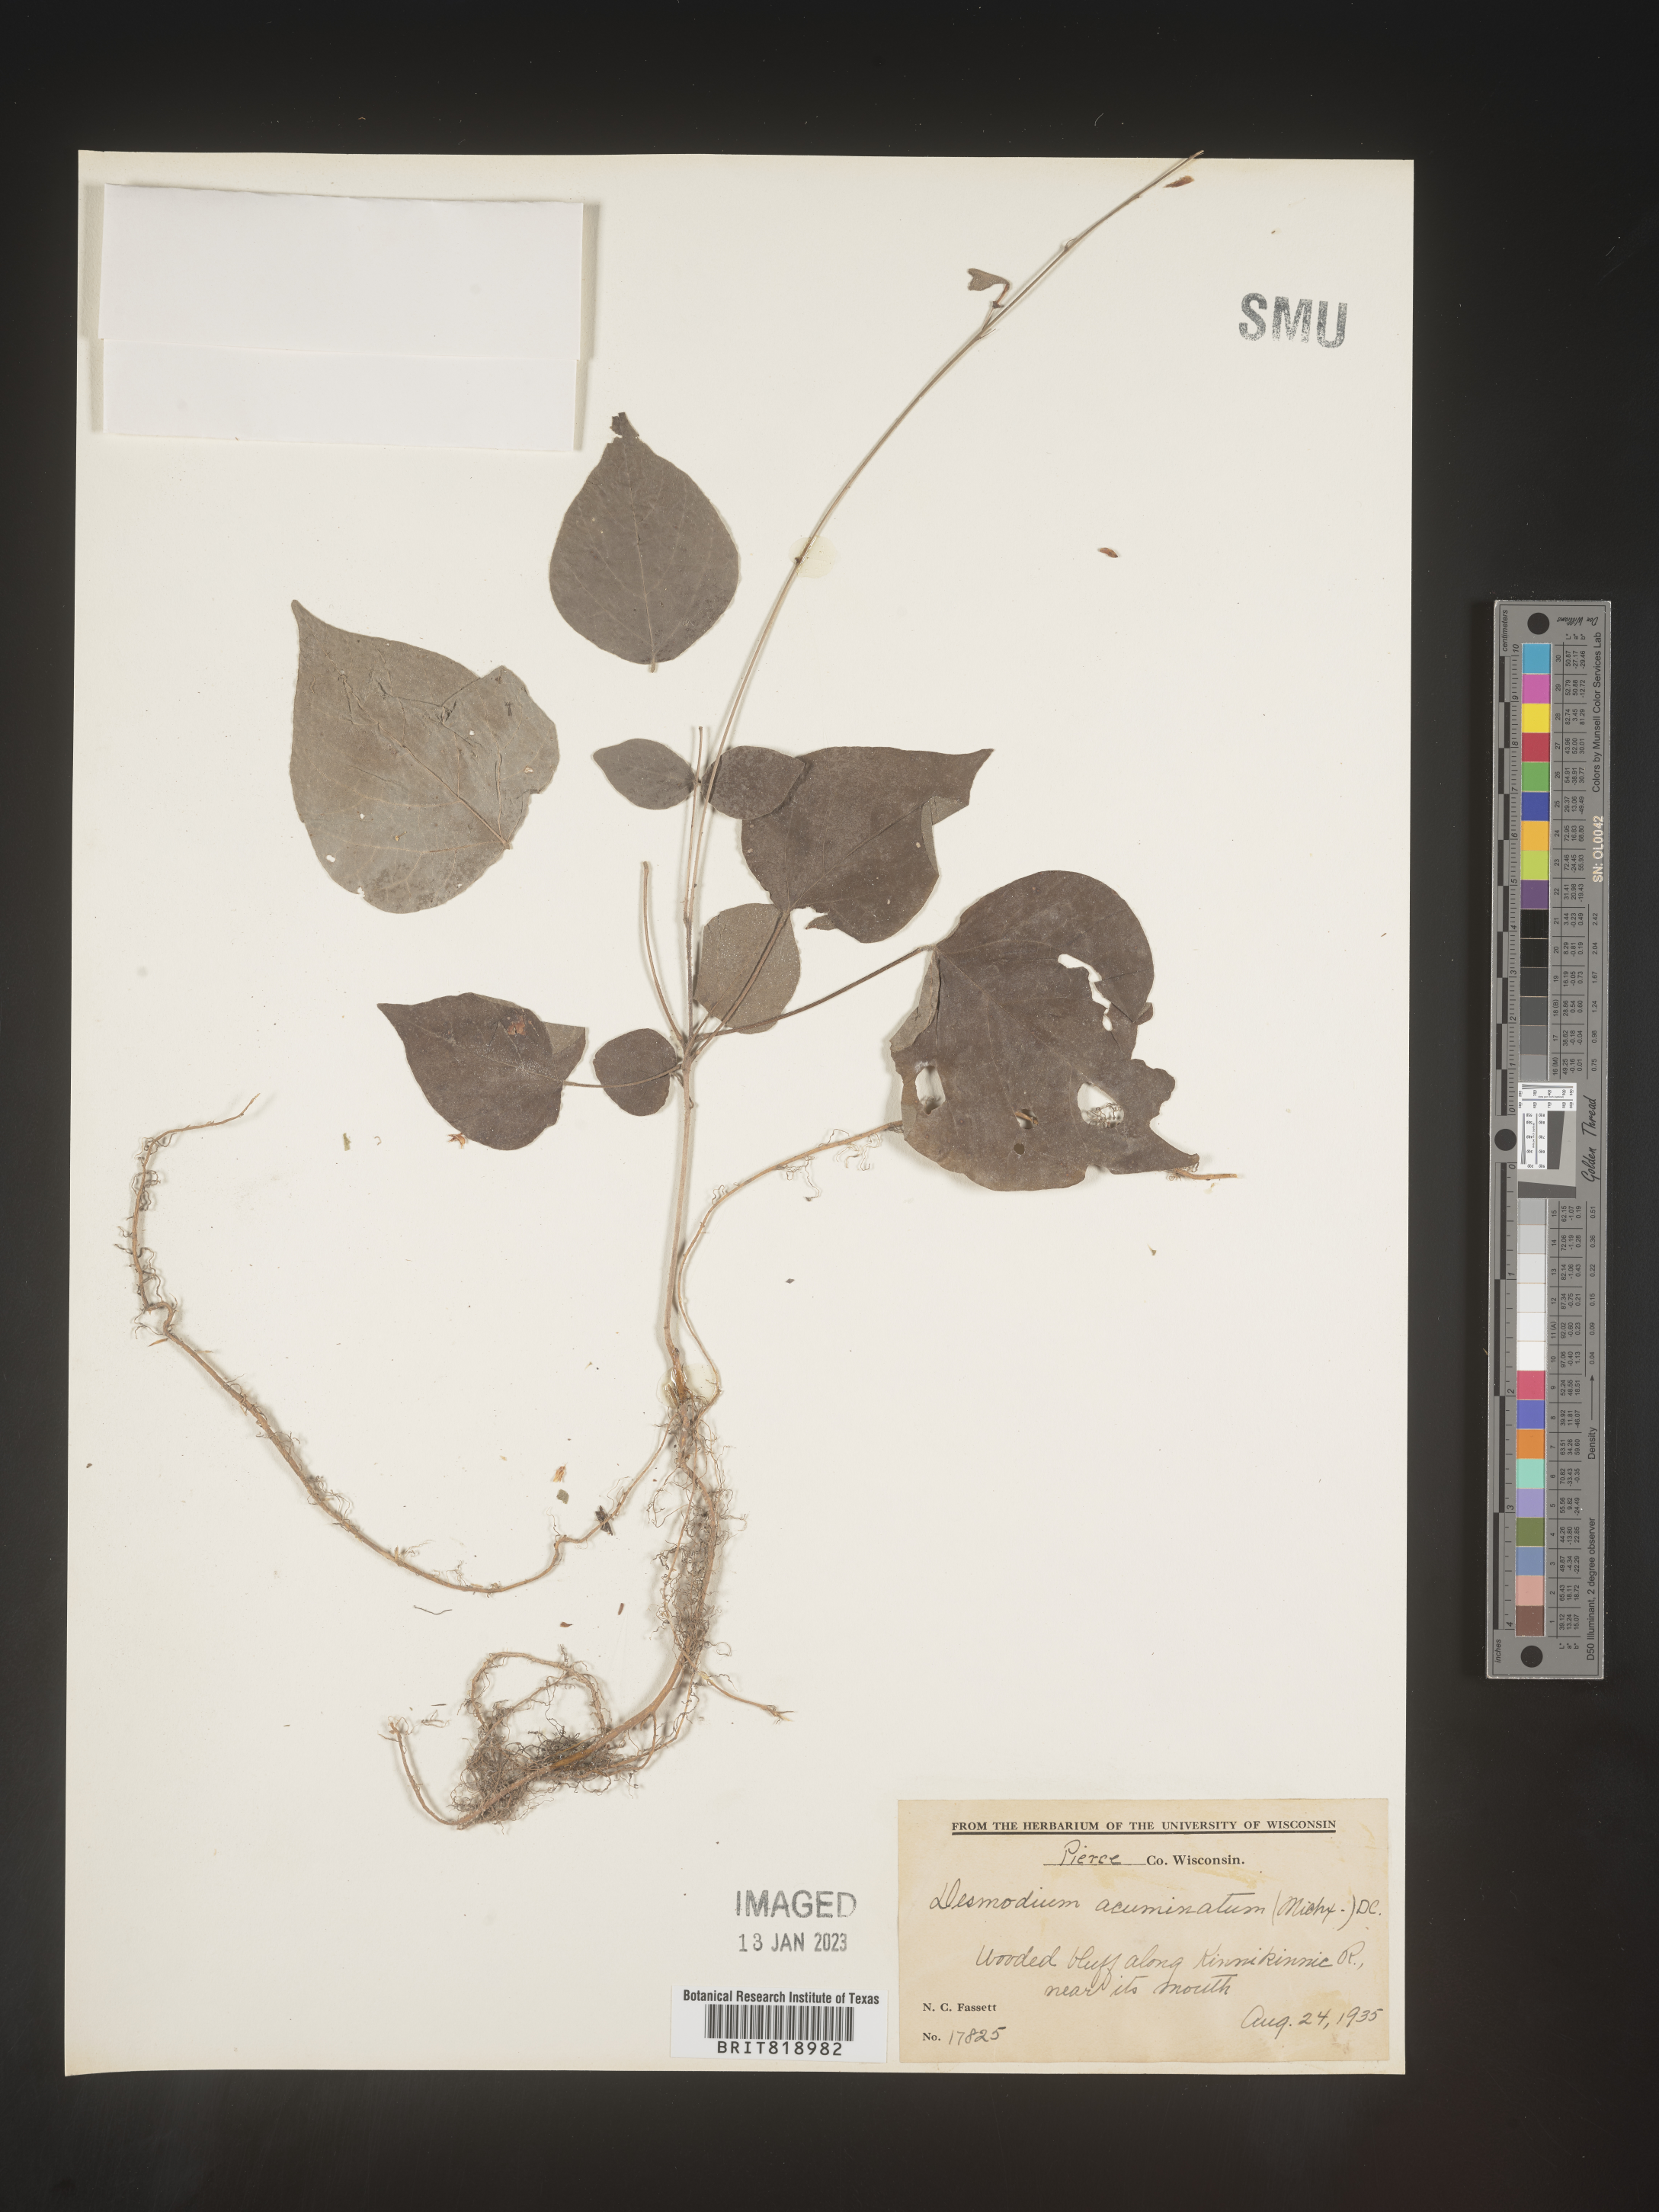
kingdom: Plantae
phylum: Tracheophyta
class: Magnoliopsida
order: Fabales
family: Fabaceae
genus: Hylodesmum
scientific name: Hylodesmum glutinosum
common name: Clustered-leaved tick-trefoil
